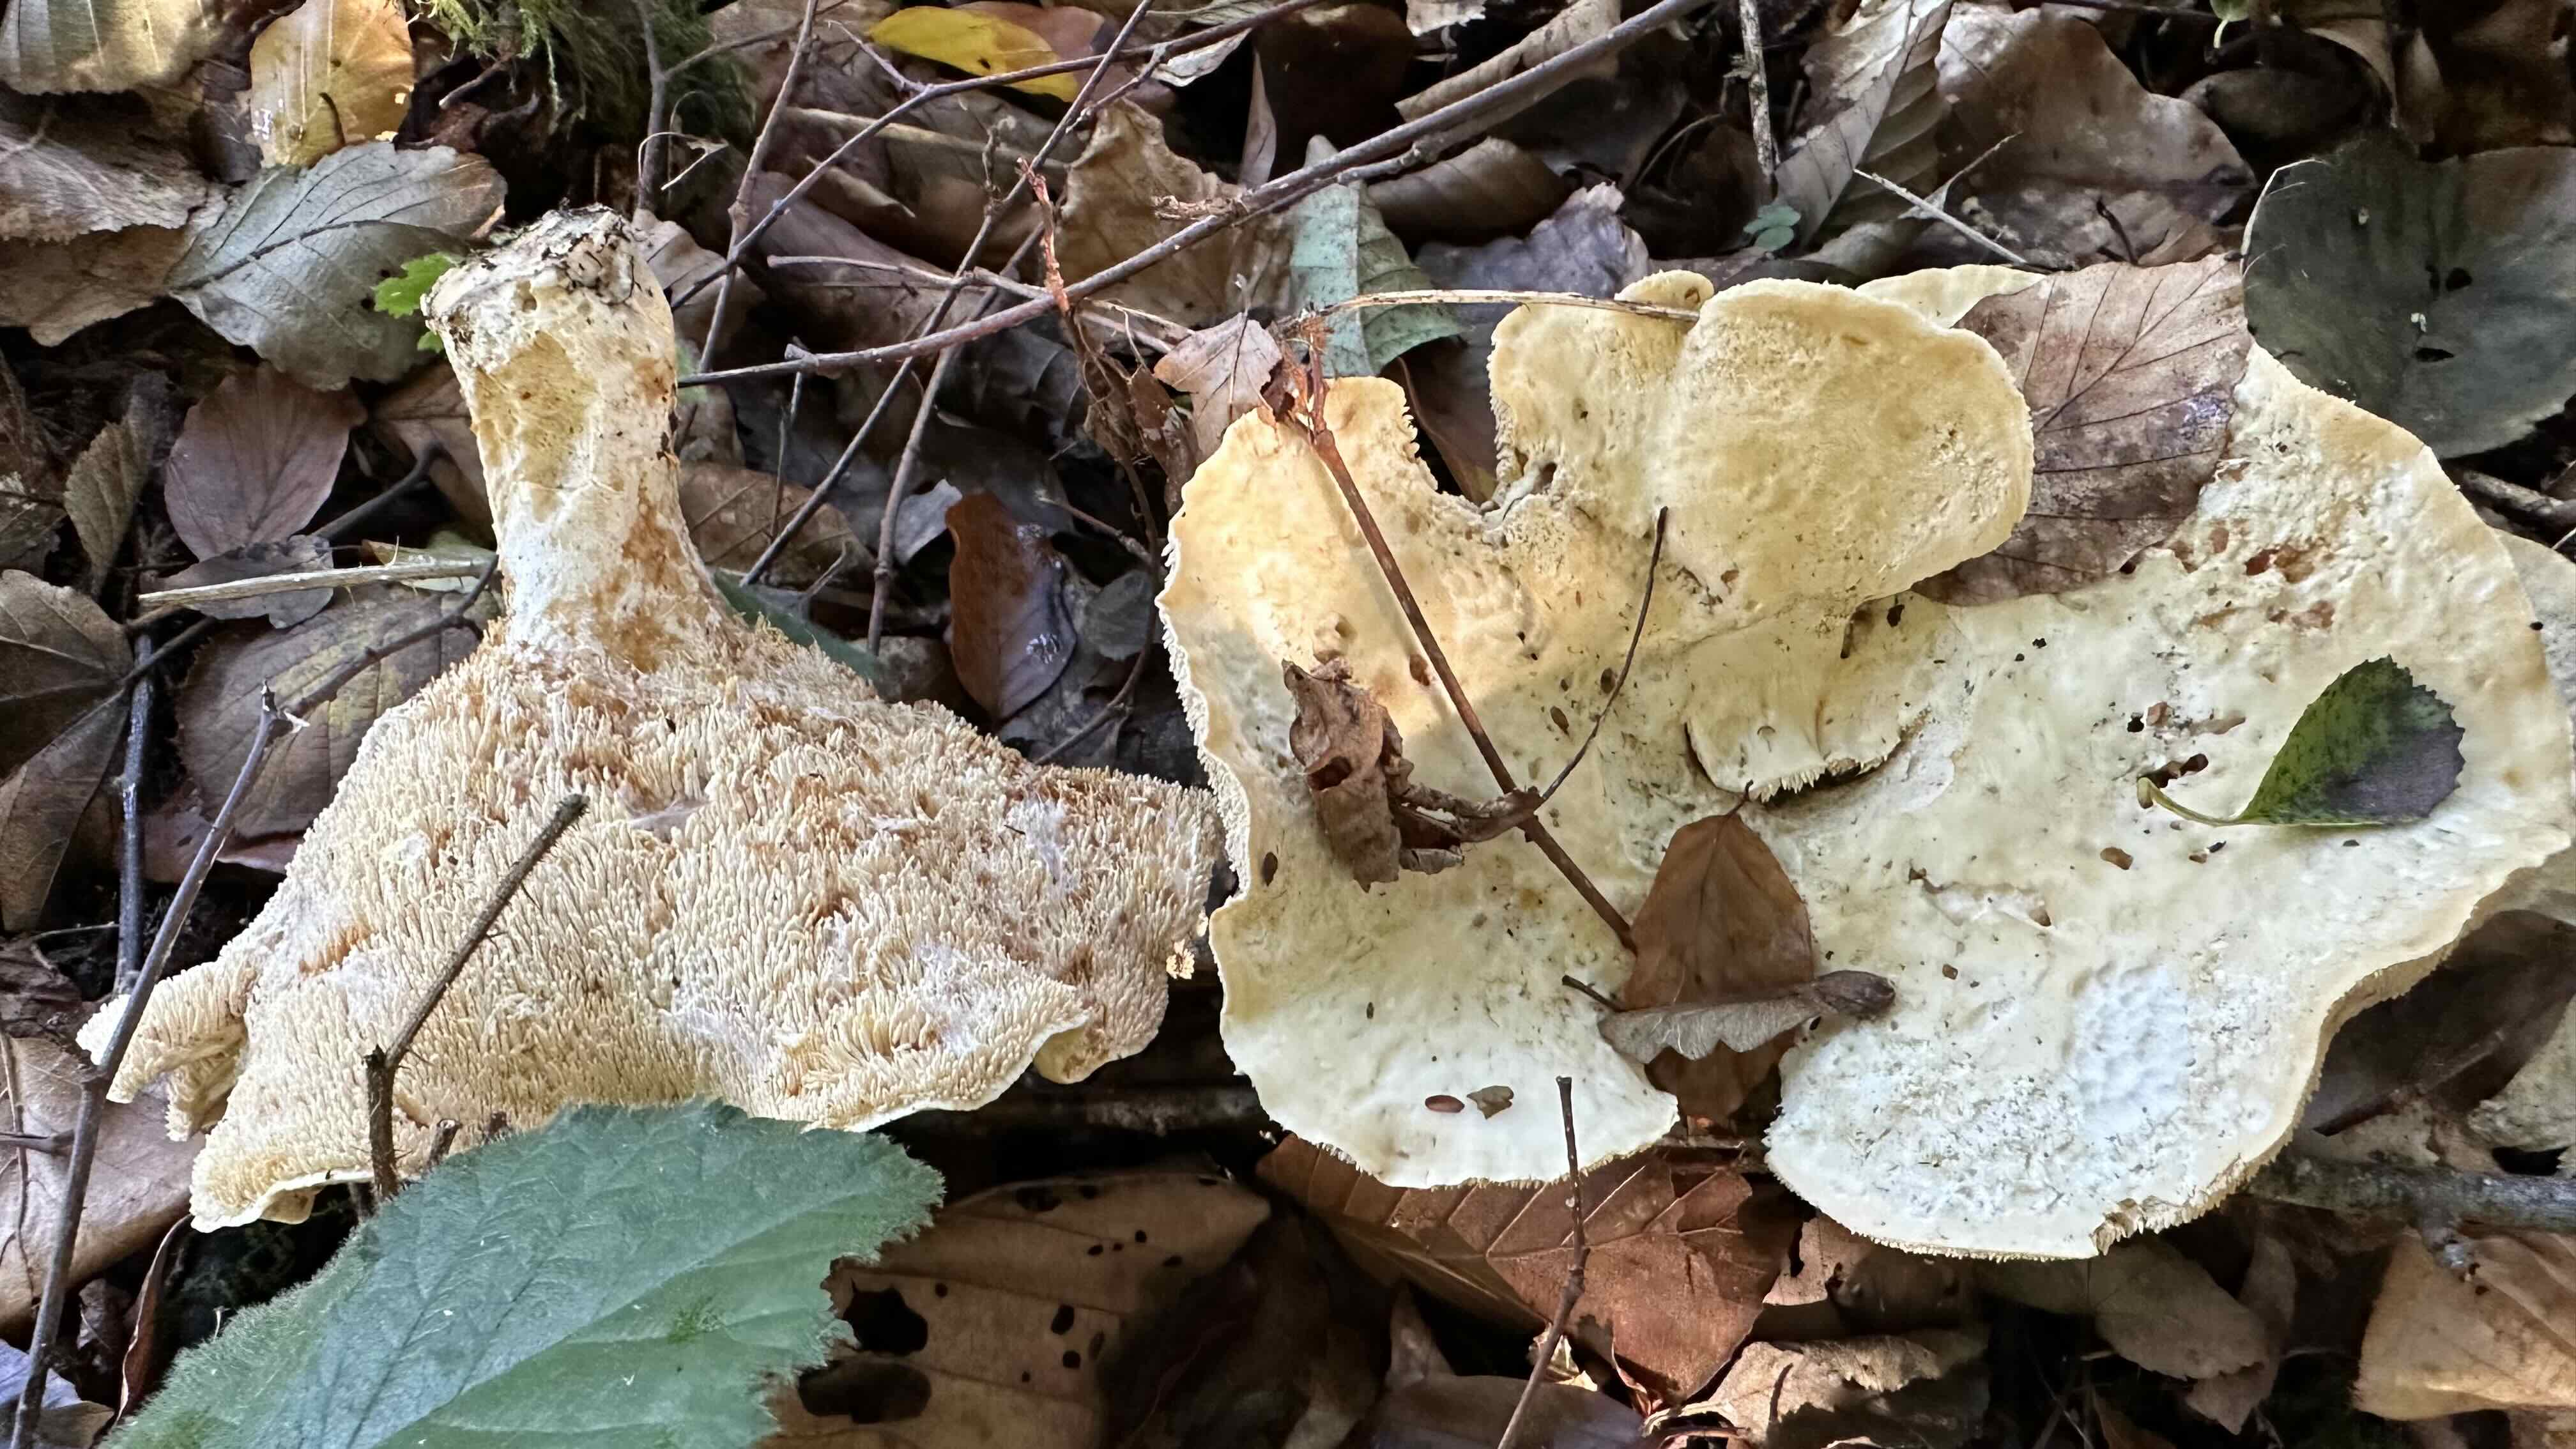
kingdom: Fungi
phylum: Basidiomycota
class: Agaricomycetes
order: Cantharellales
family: Hydnaceae
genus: Hydnum
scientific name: Hydnum repandum
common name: almindelig pigsvamp
